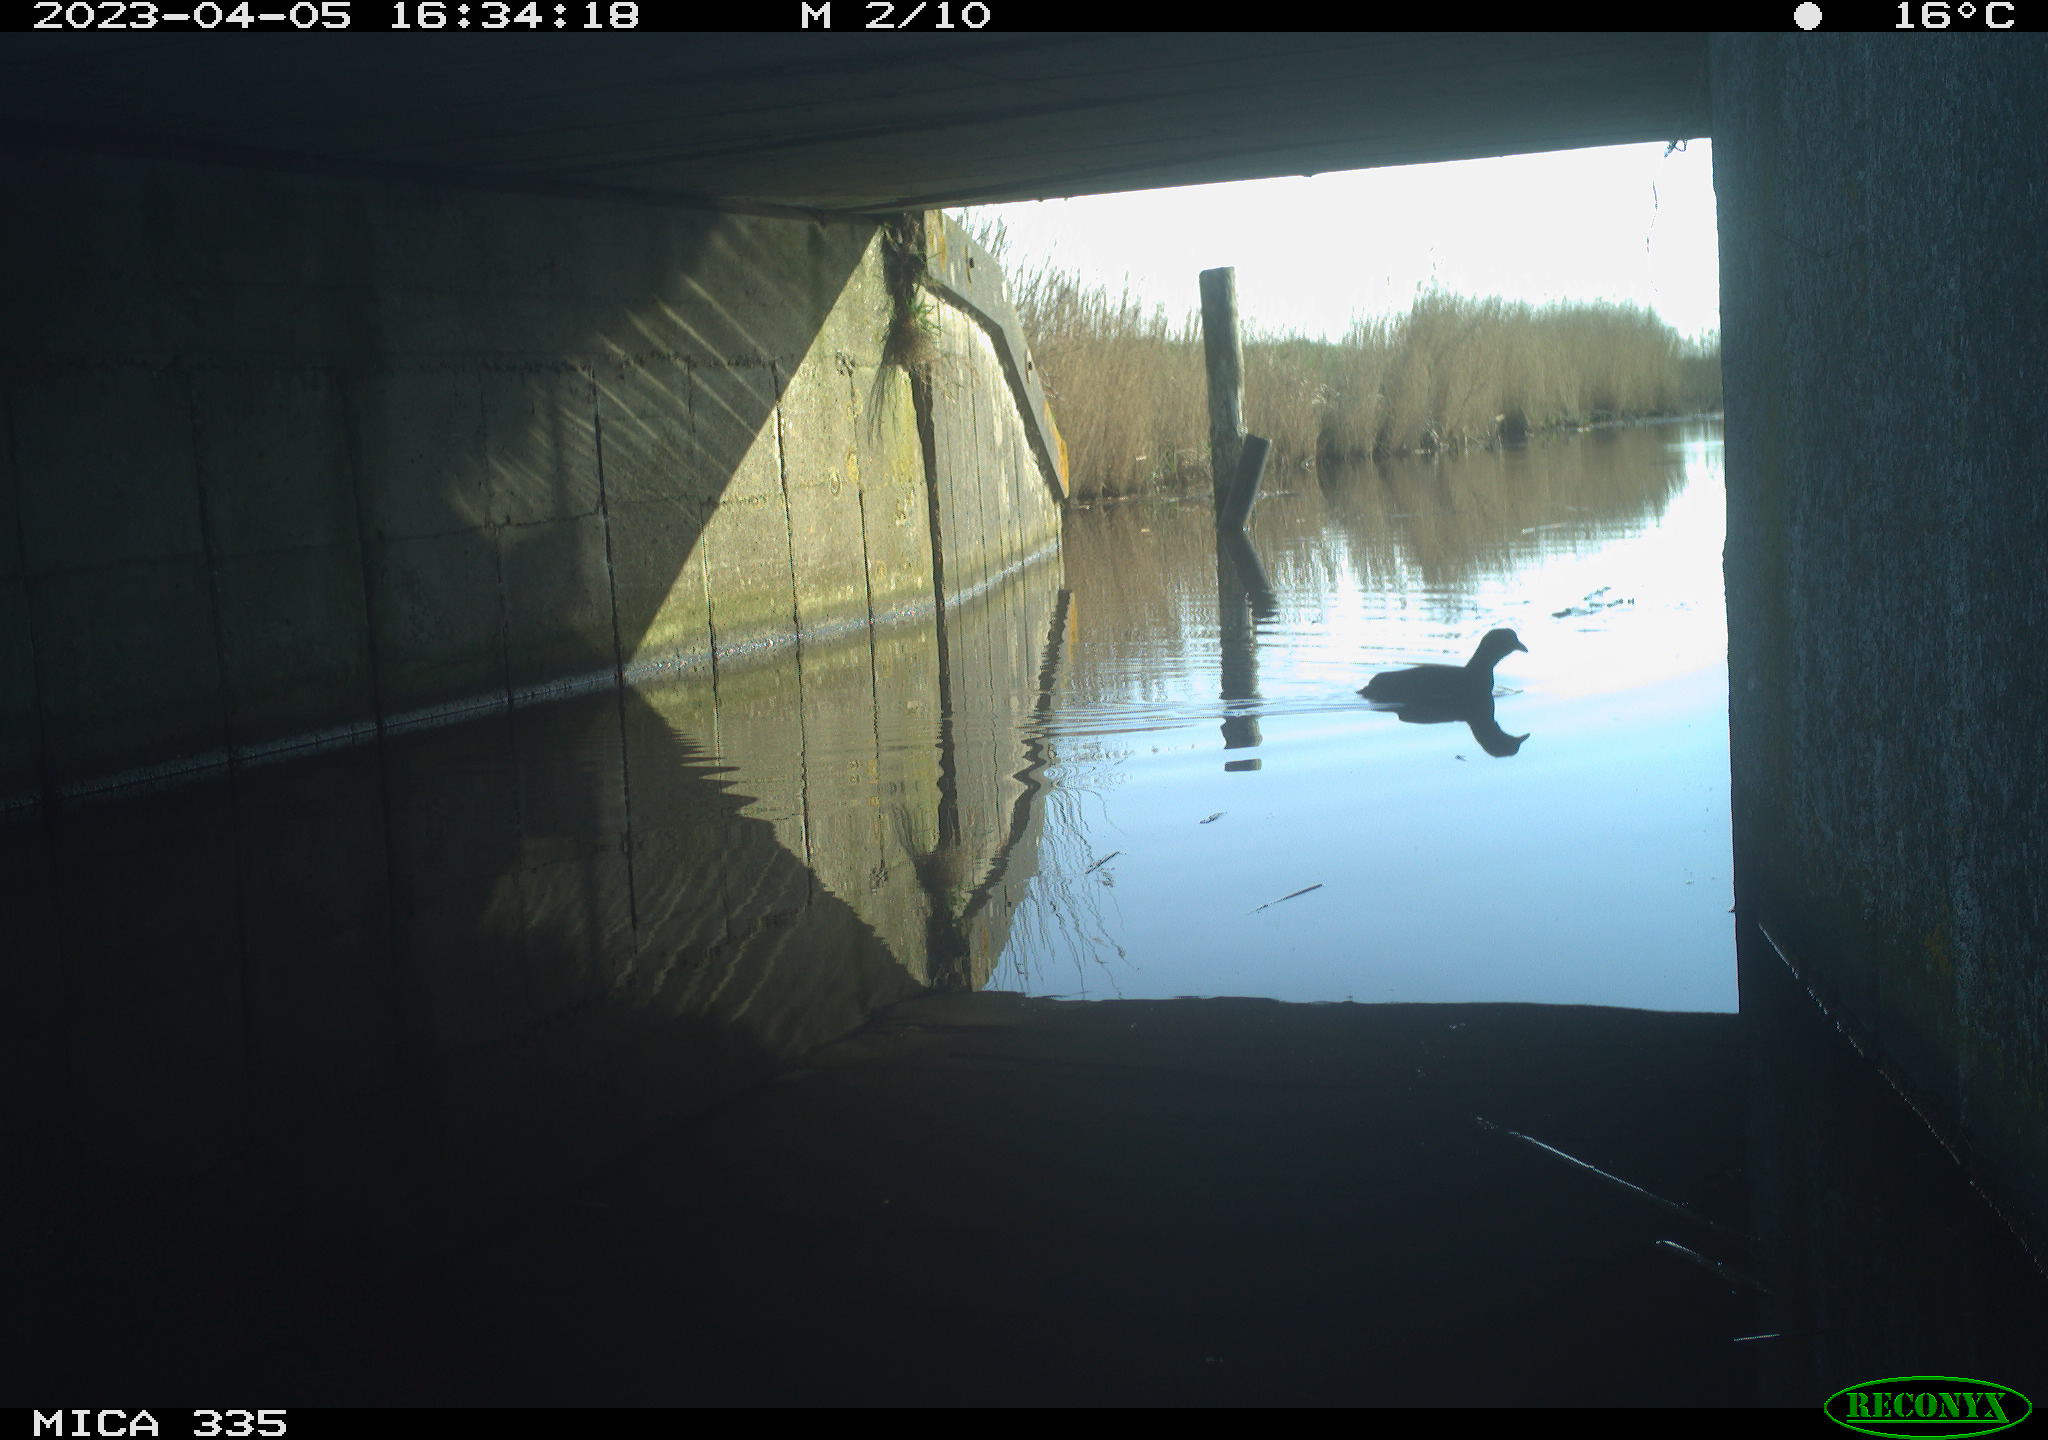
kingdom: Animalia
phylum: Chordata
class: Aves
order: Anseriformes
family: Anatidae
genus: Anas
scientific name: Anas
